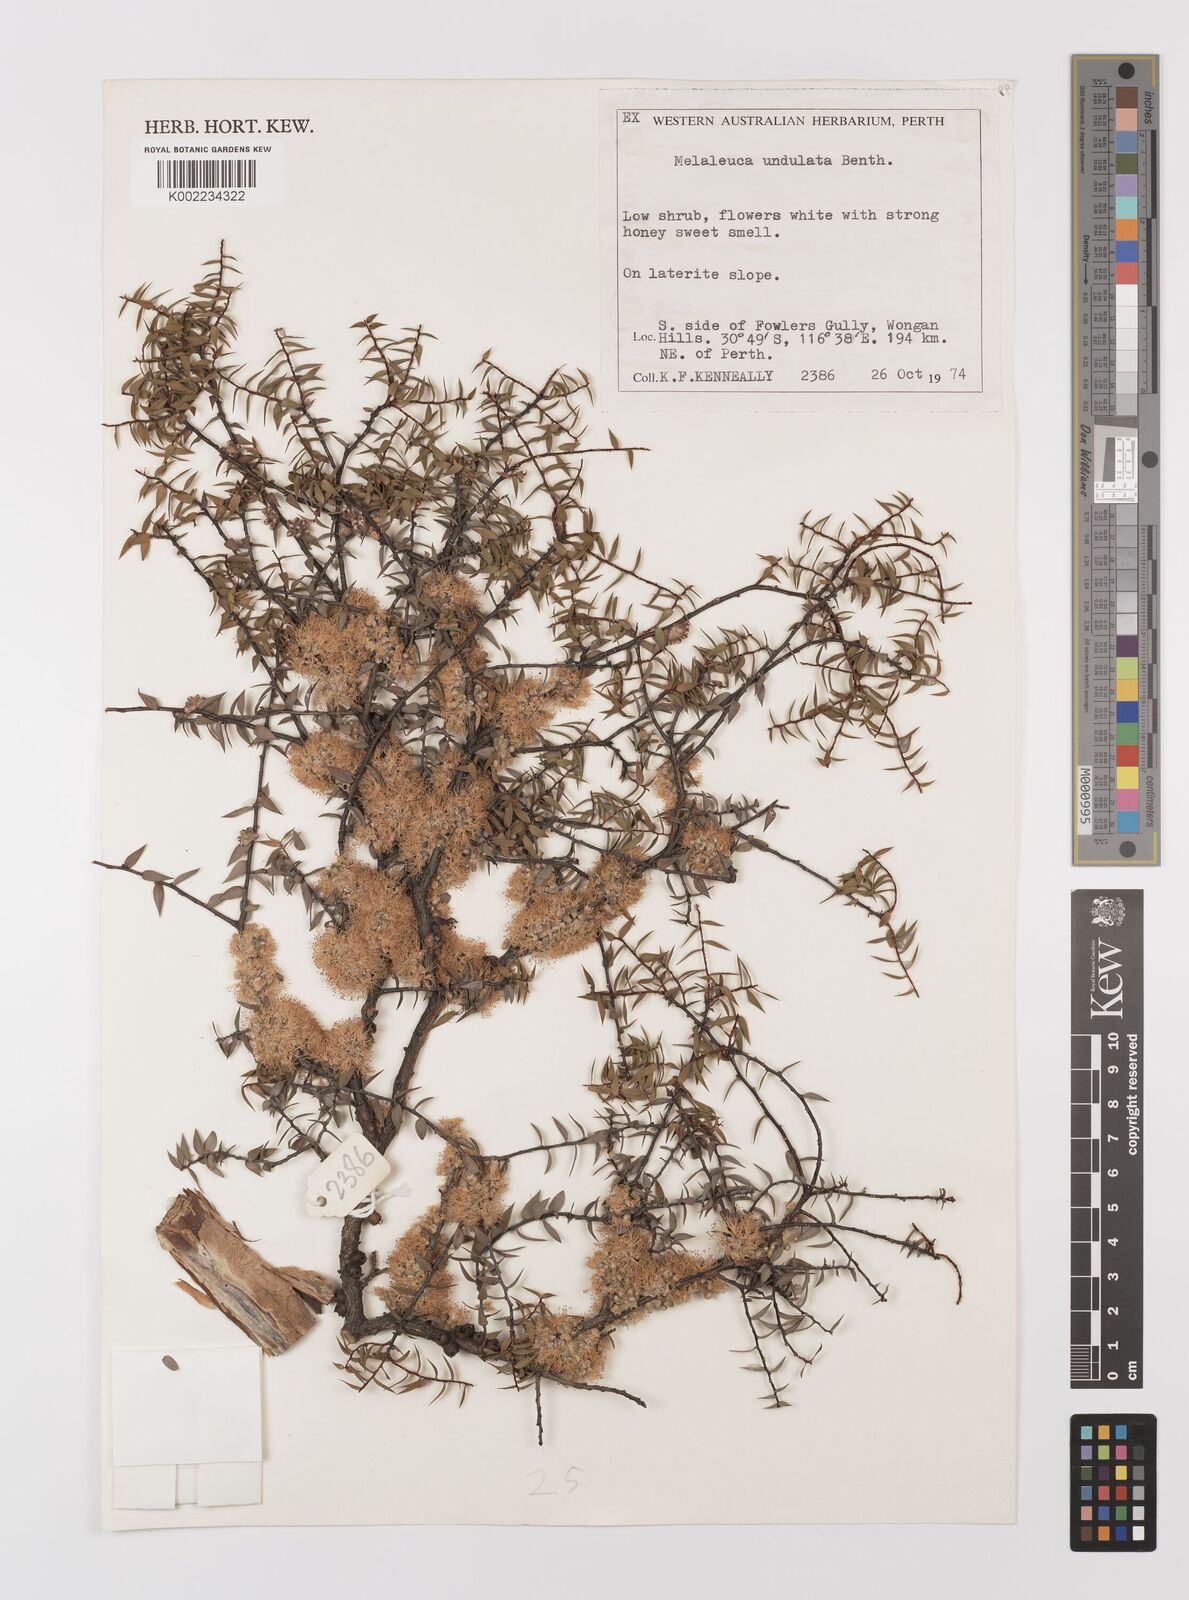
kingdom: Plantae
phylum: Tracheophyta
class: Magnoliopsida
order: Myrtales
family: Myrtaceae
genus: Melaleuca
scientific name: Melaleuca undulata
